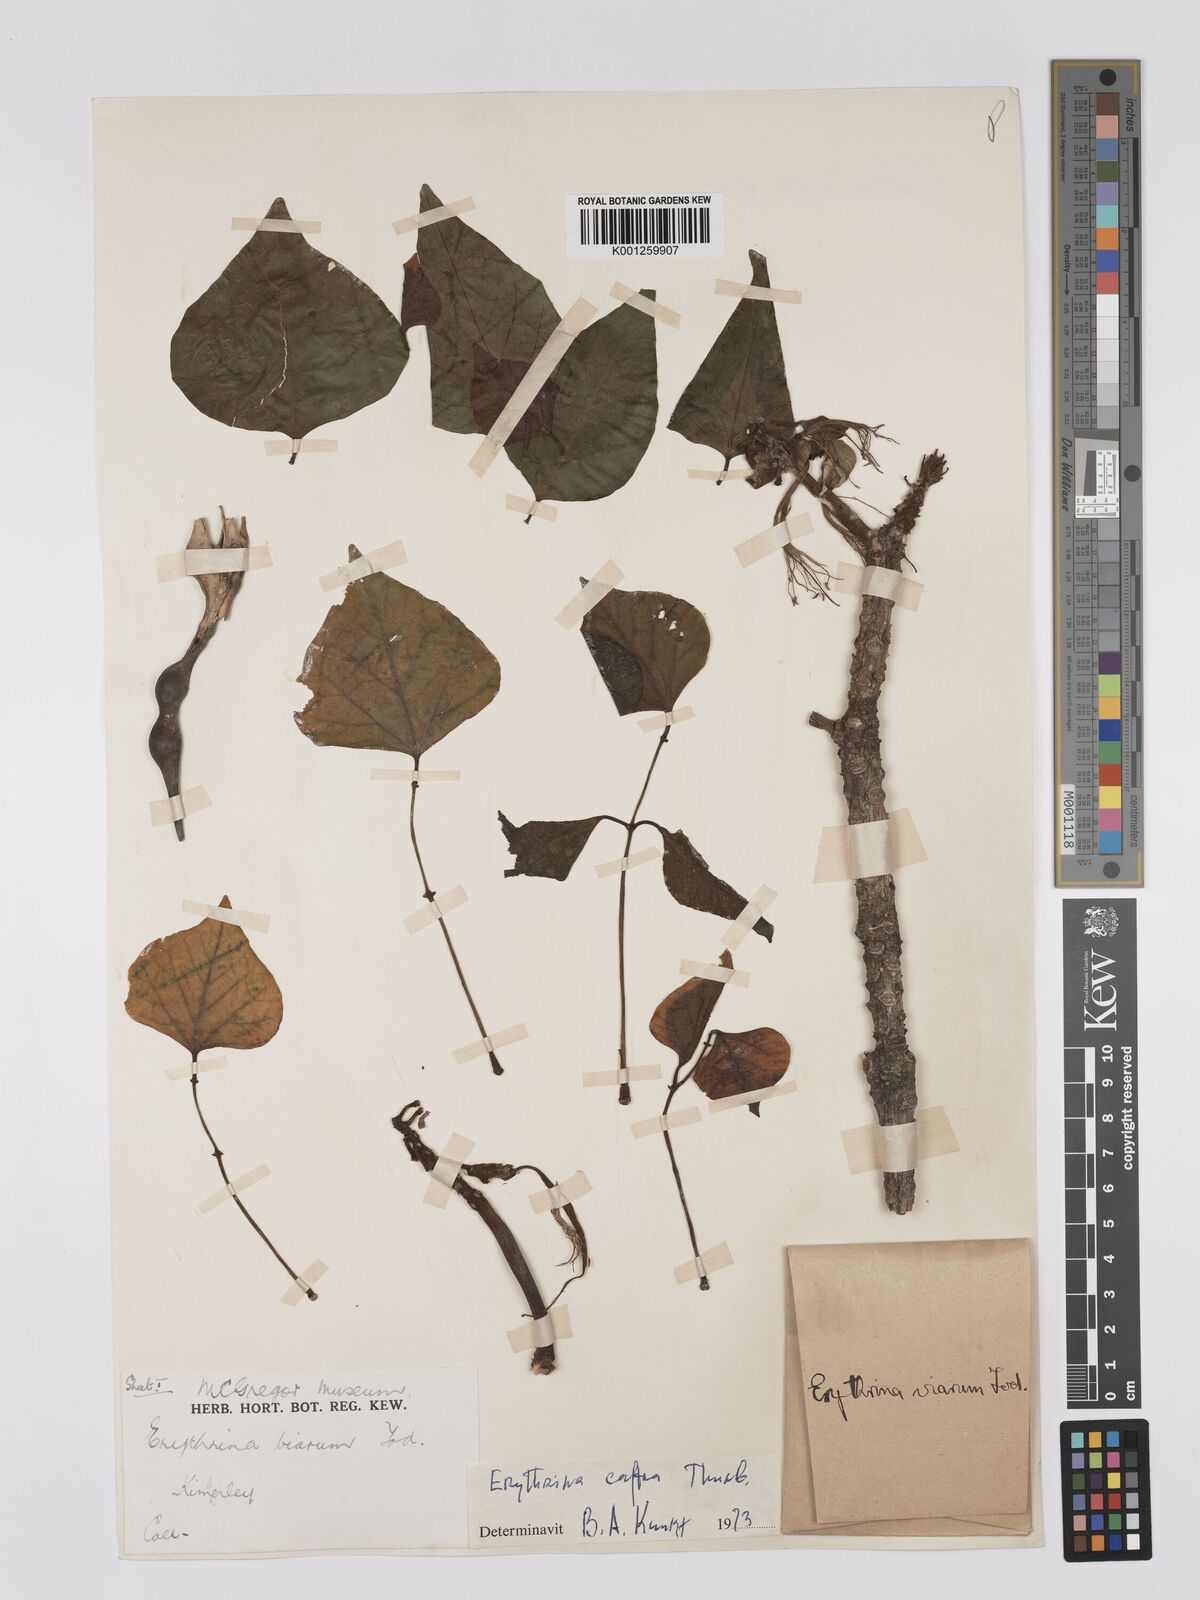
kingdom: Plantae
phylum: Tracheophyta
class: Magnoliopsida
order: Fabales
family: Fabaceae
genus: Erythrina
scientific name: Erythrina caffra
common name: Coast coral tree
